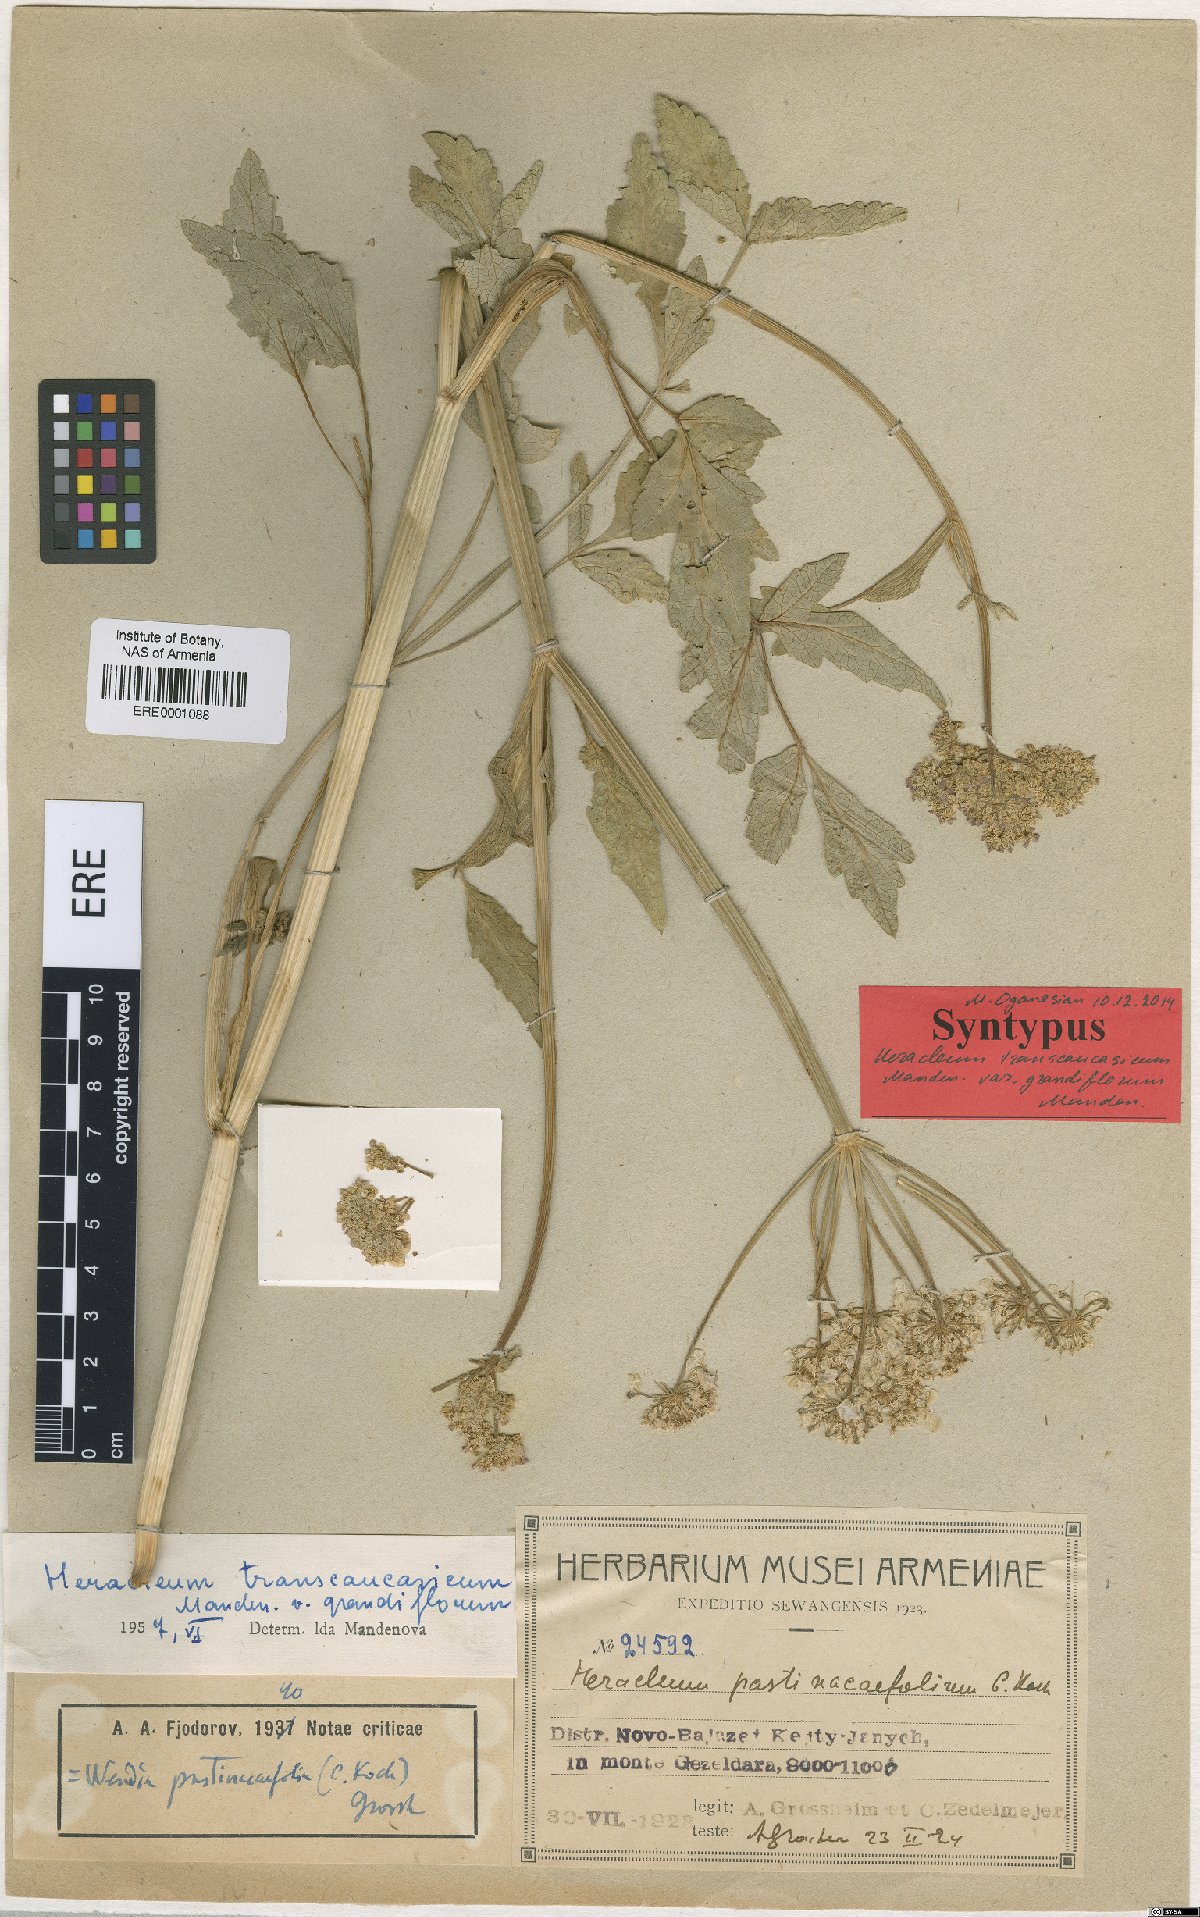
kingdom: Plantae
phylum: Tracheophyta
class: Magnoliopsida
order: Apiales
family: Apiaceae
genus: Heracleum
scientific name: Heracleum pastinacifolium
